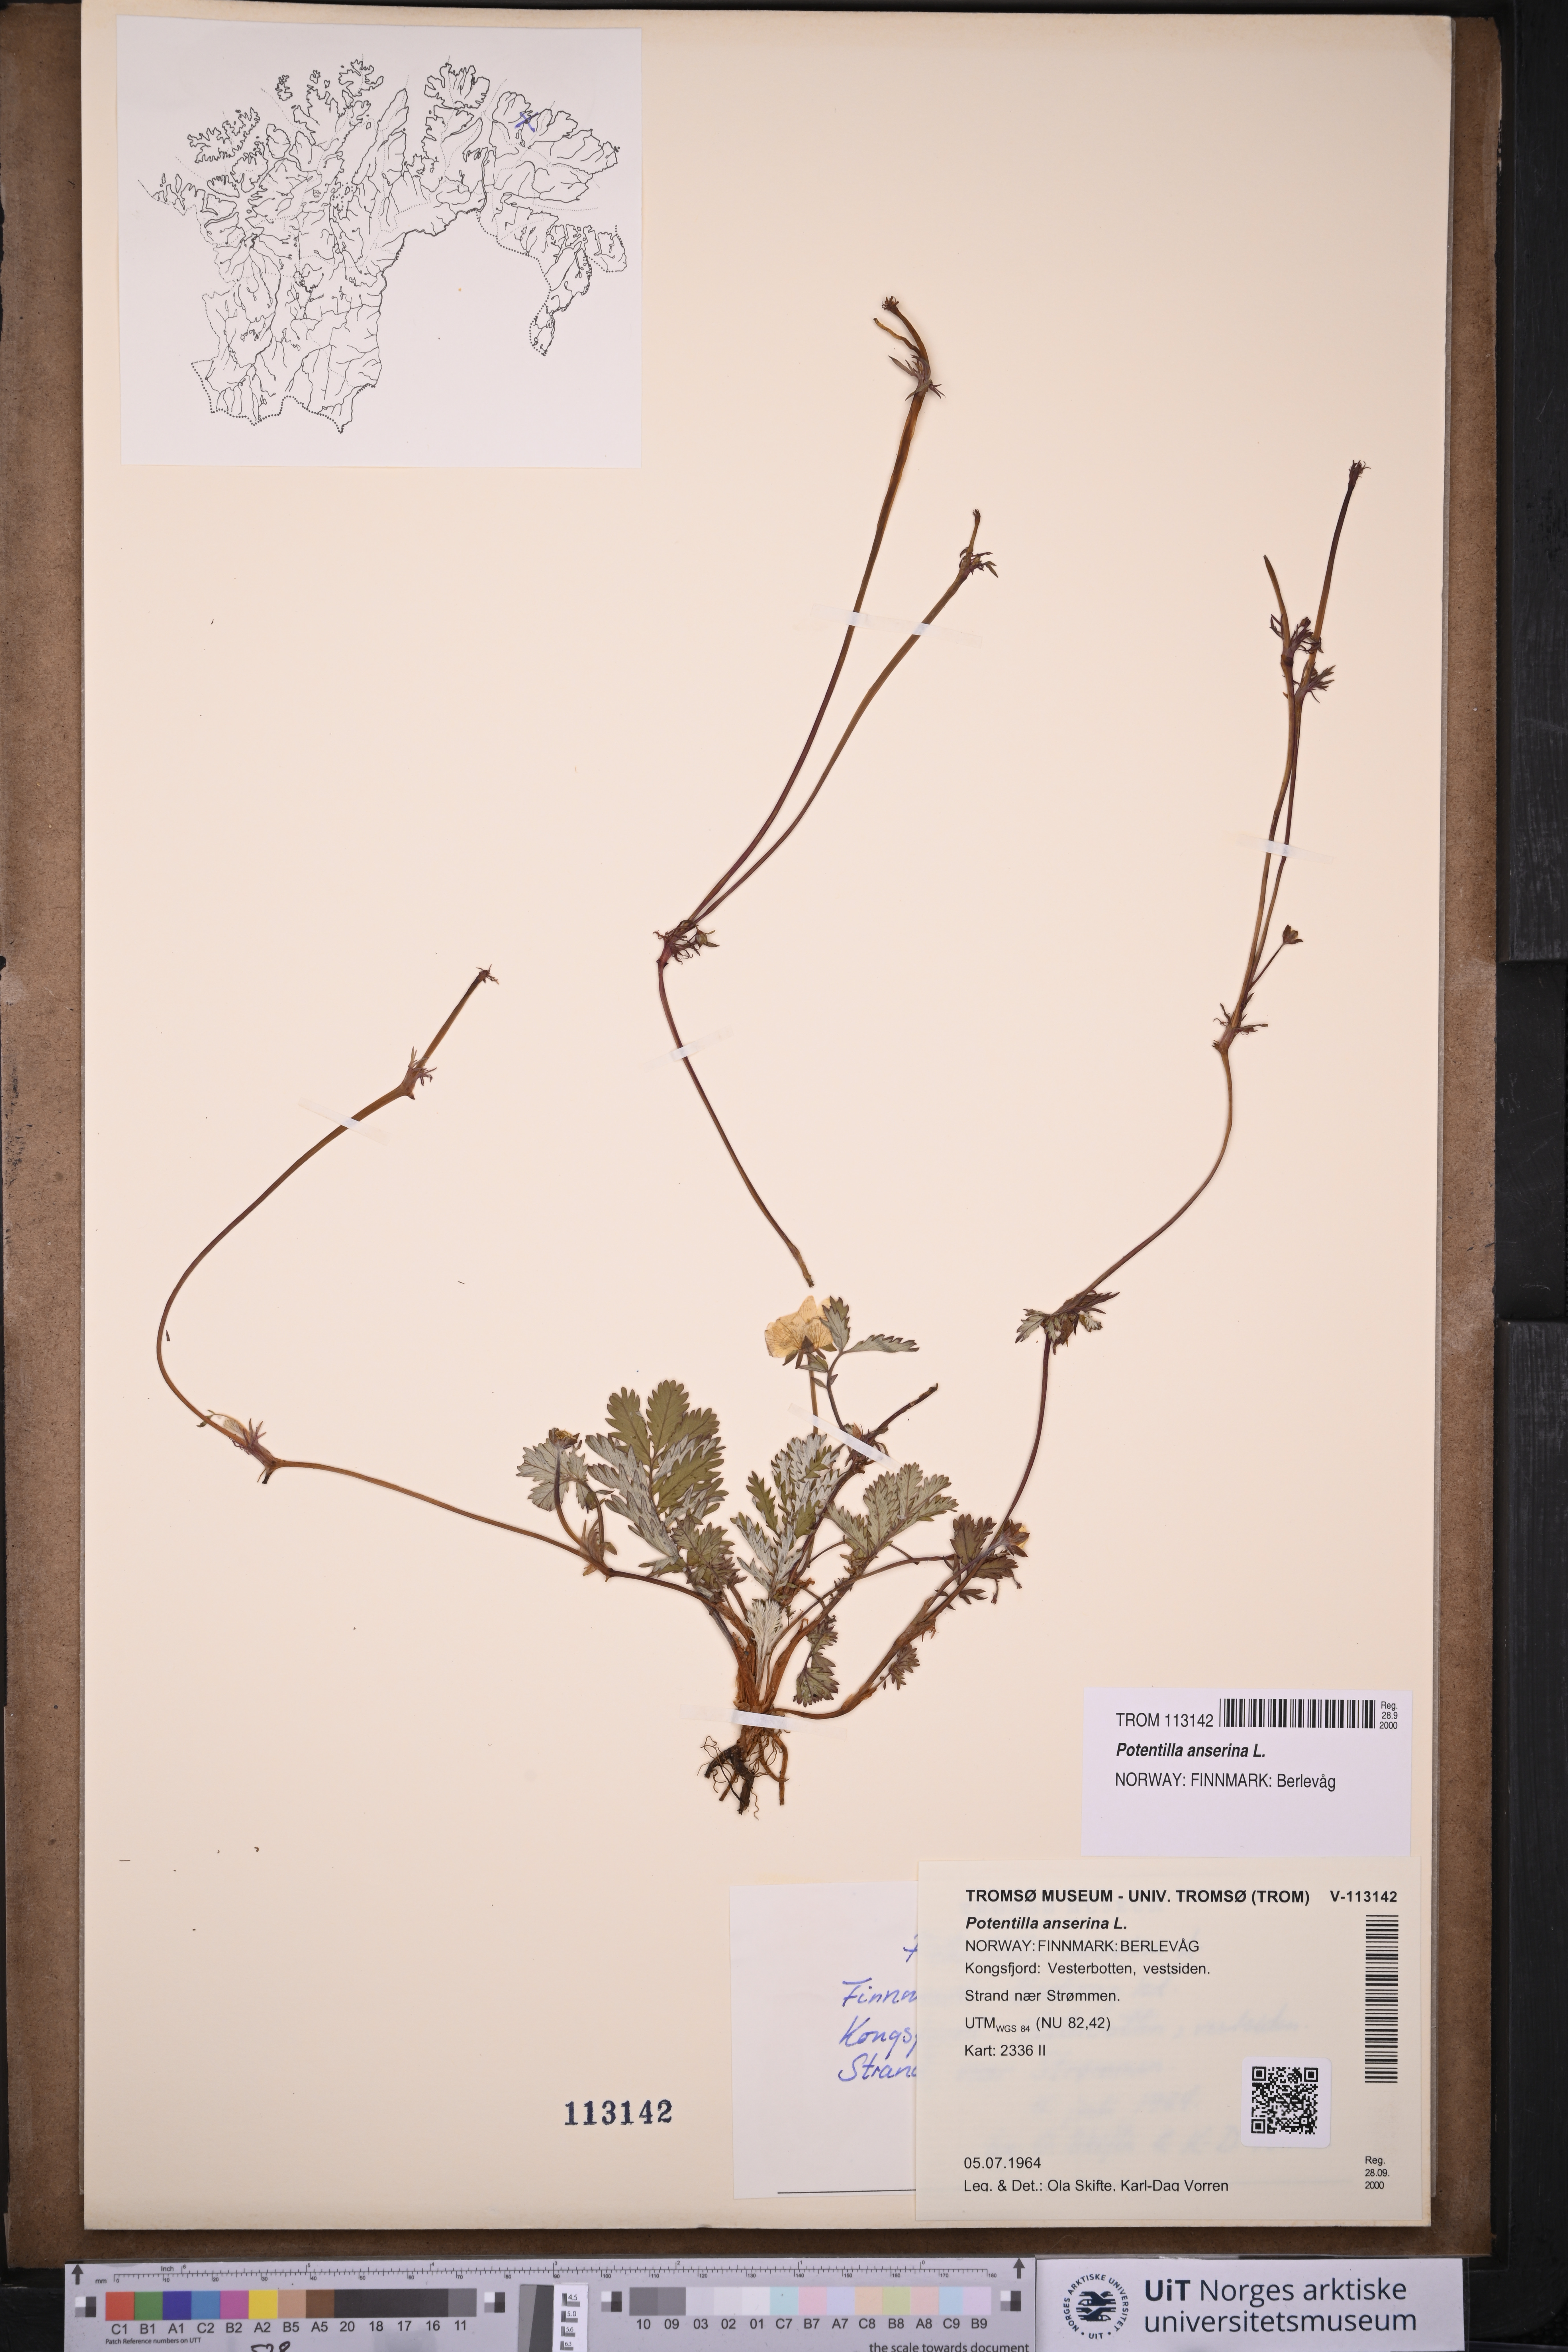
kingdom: Plantae
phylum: Tracheophyta
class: Magnoliopsida
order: Rosales
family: Rosaceae
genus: Argentina
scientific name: Argentina anserina
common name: Common silverweed
